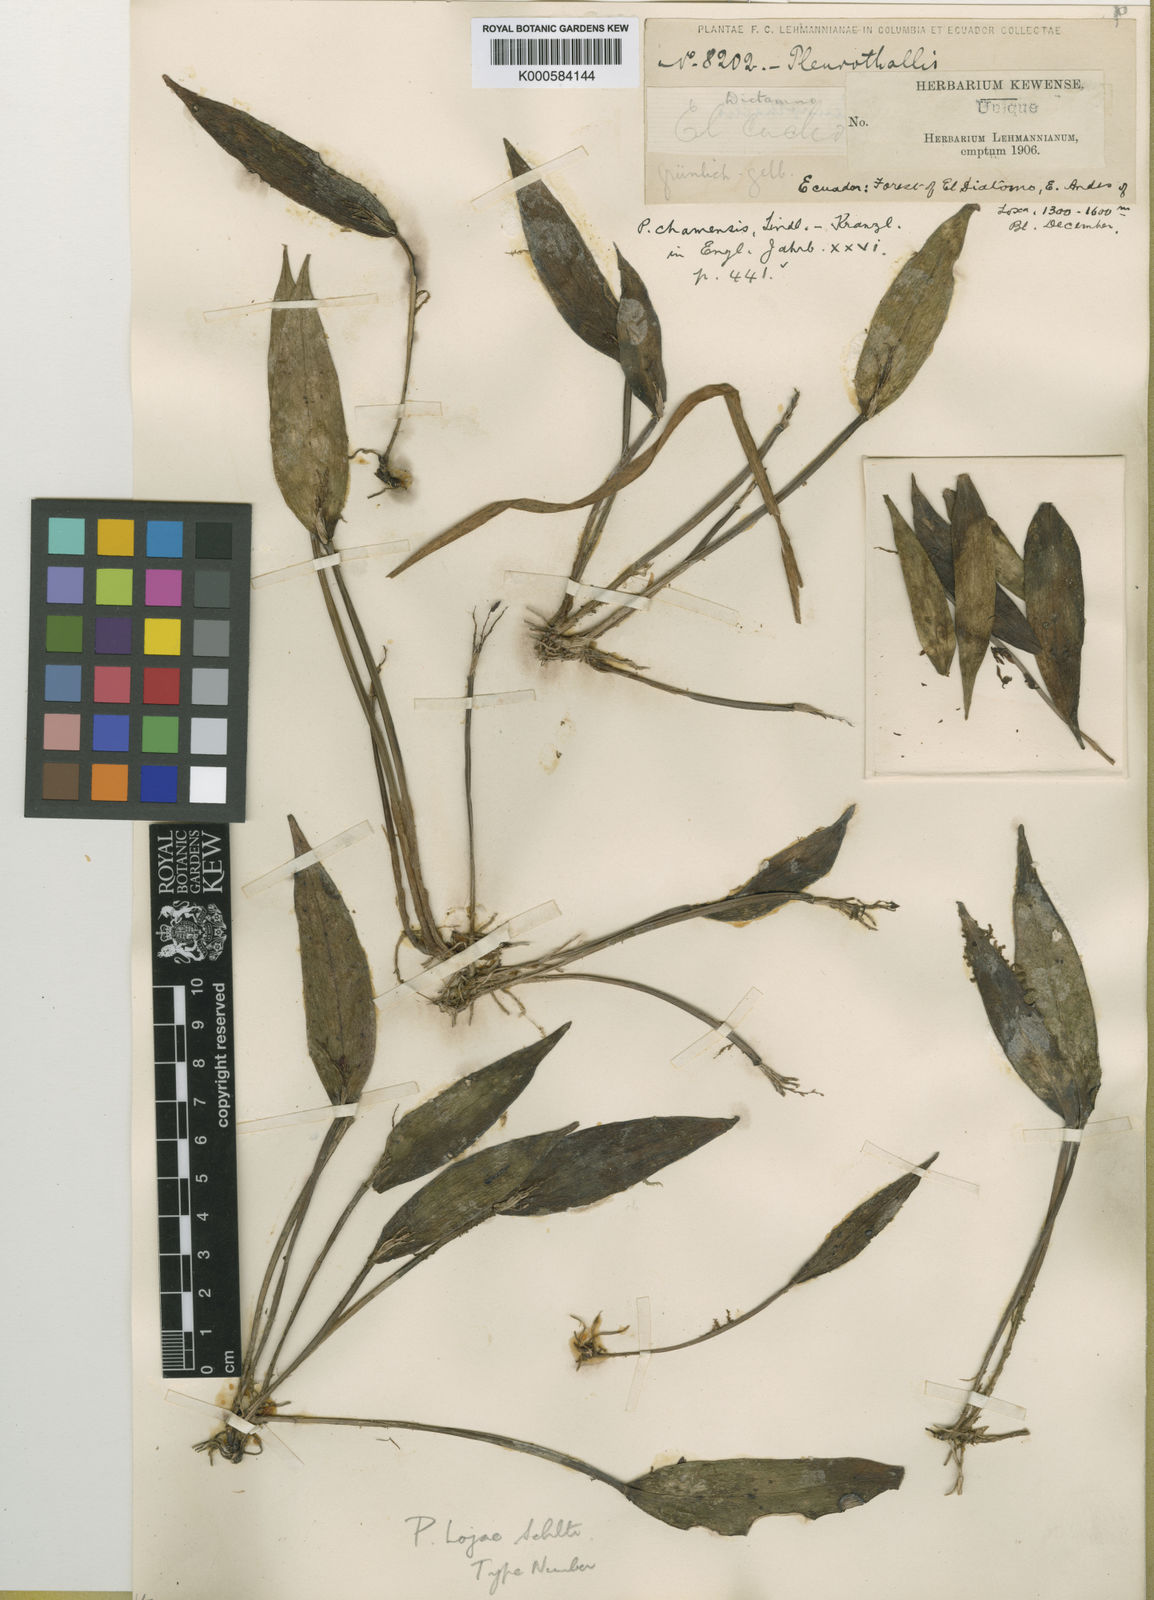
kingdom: Plantae
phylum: Tracheophyta
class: Liliopsida
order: Asparagales
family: Orchidaceae
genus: Acianthera
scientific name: Acianthera lojae
